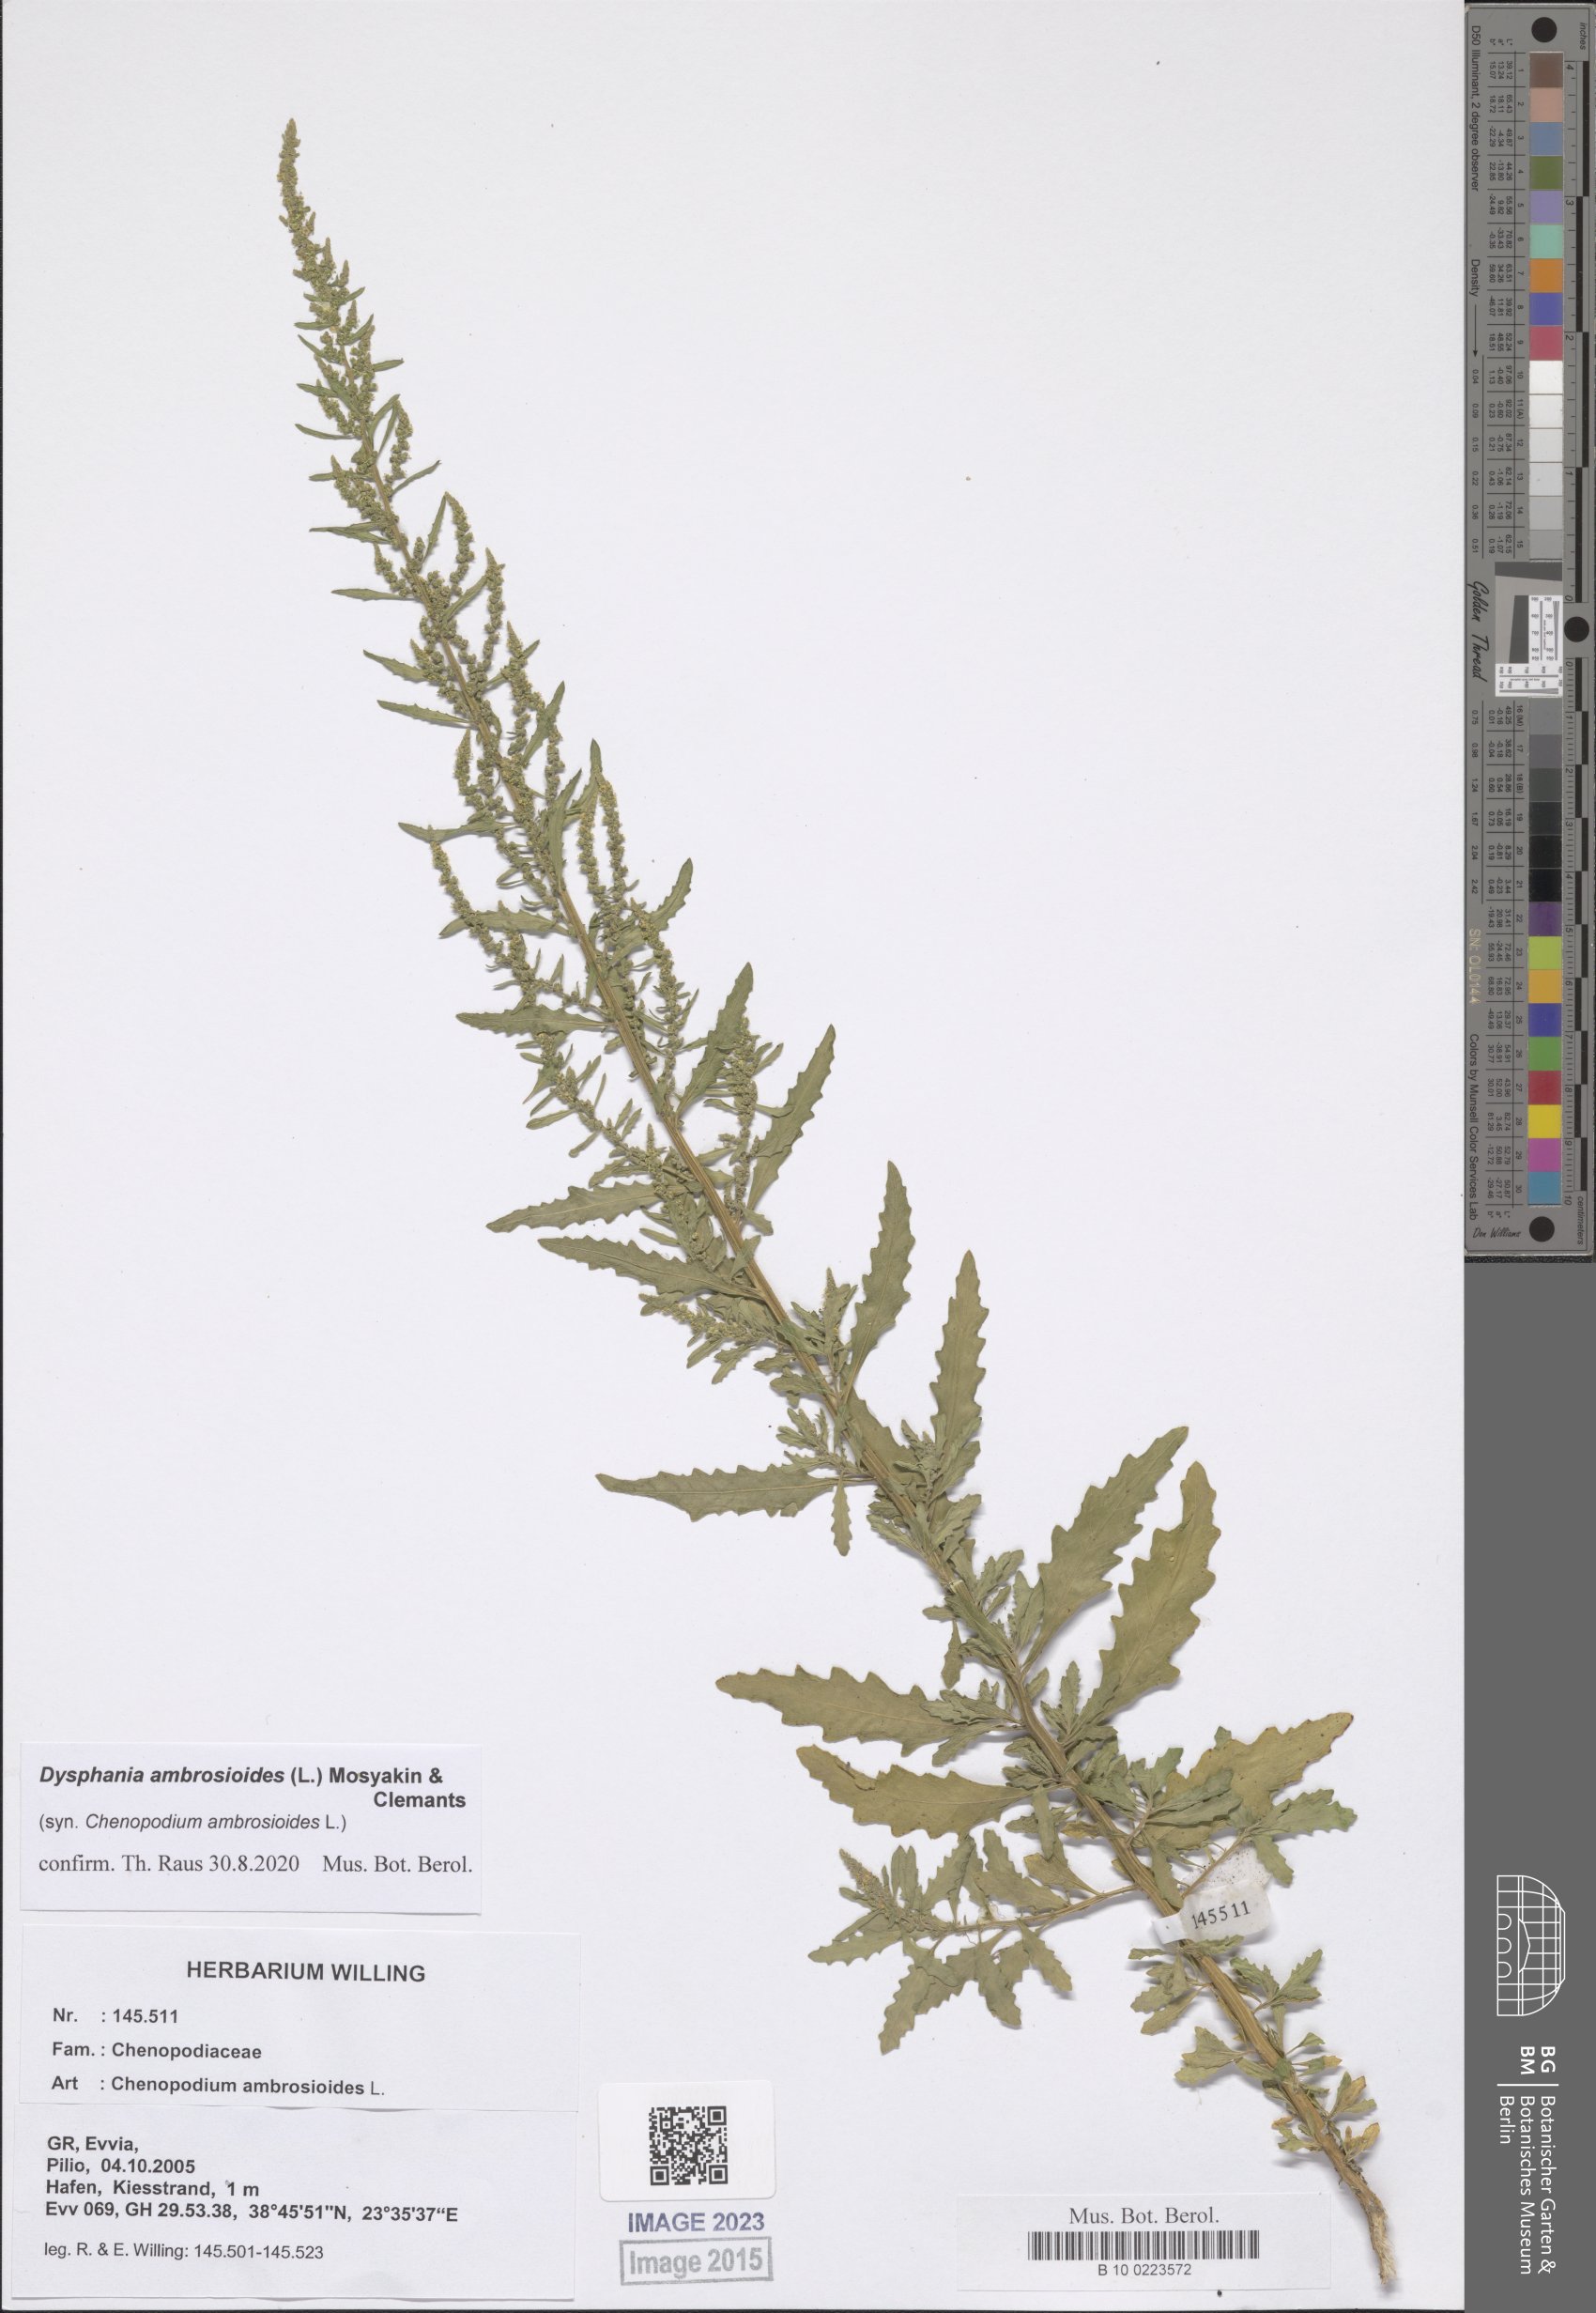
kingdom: Plantae
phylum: Tracheophyta
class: Magnoliopsida
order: Caryophyllales
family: Amaranthaceae
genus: Dysphania
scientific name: Dysphania ambrosioides
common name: Wormseed
